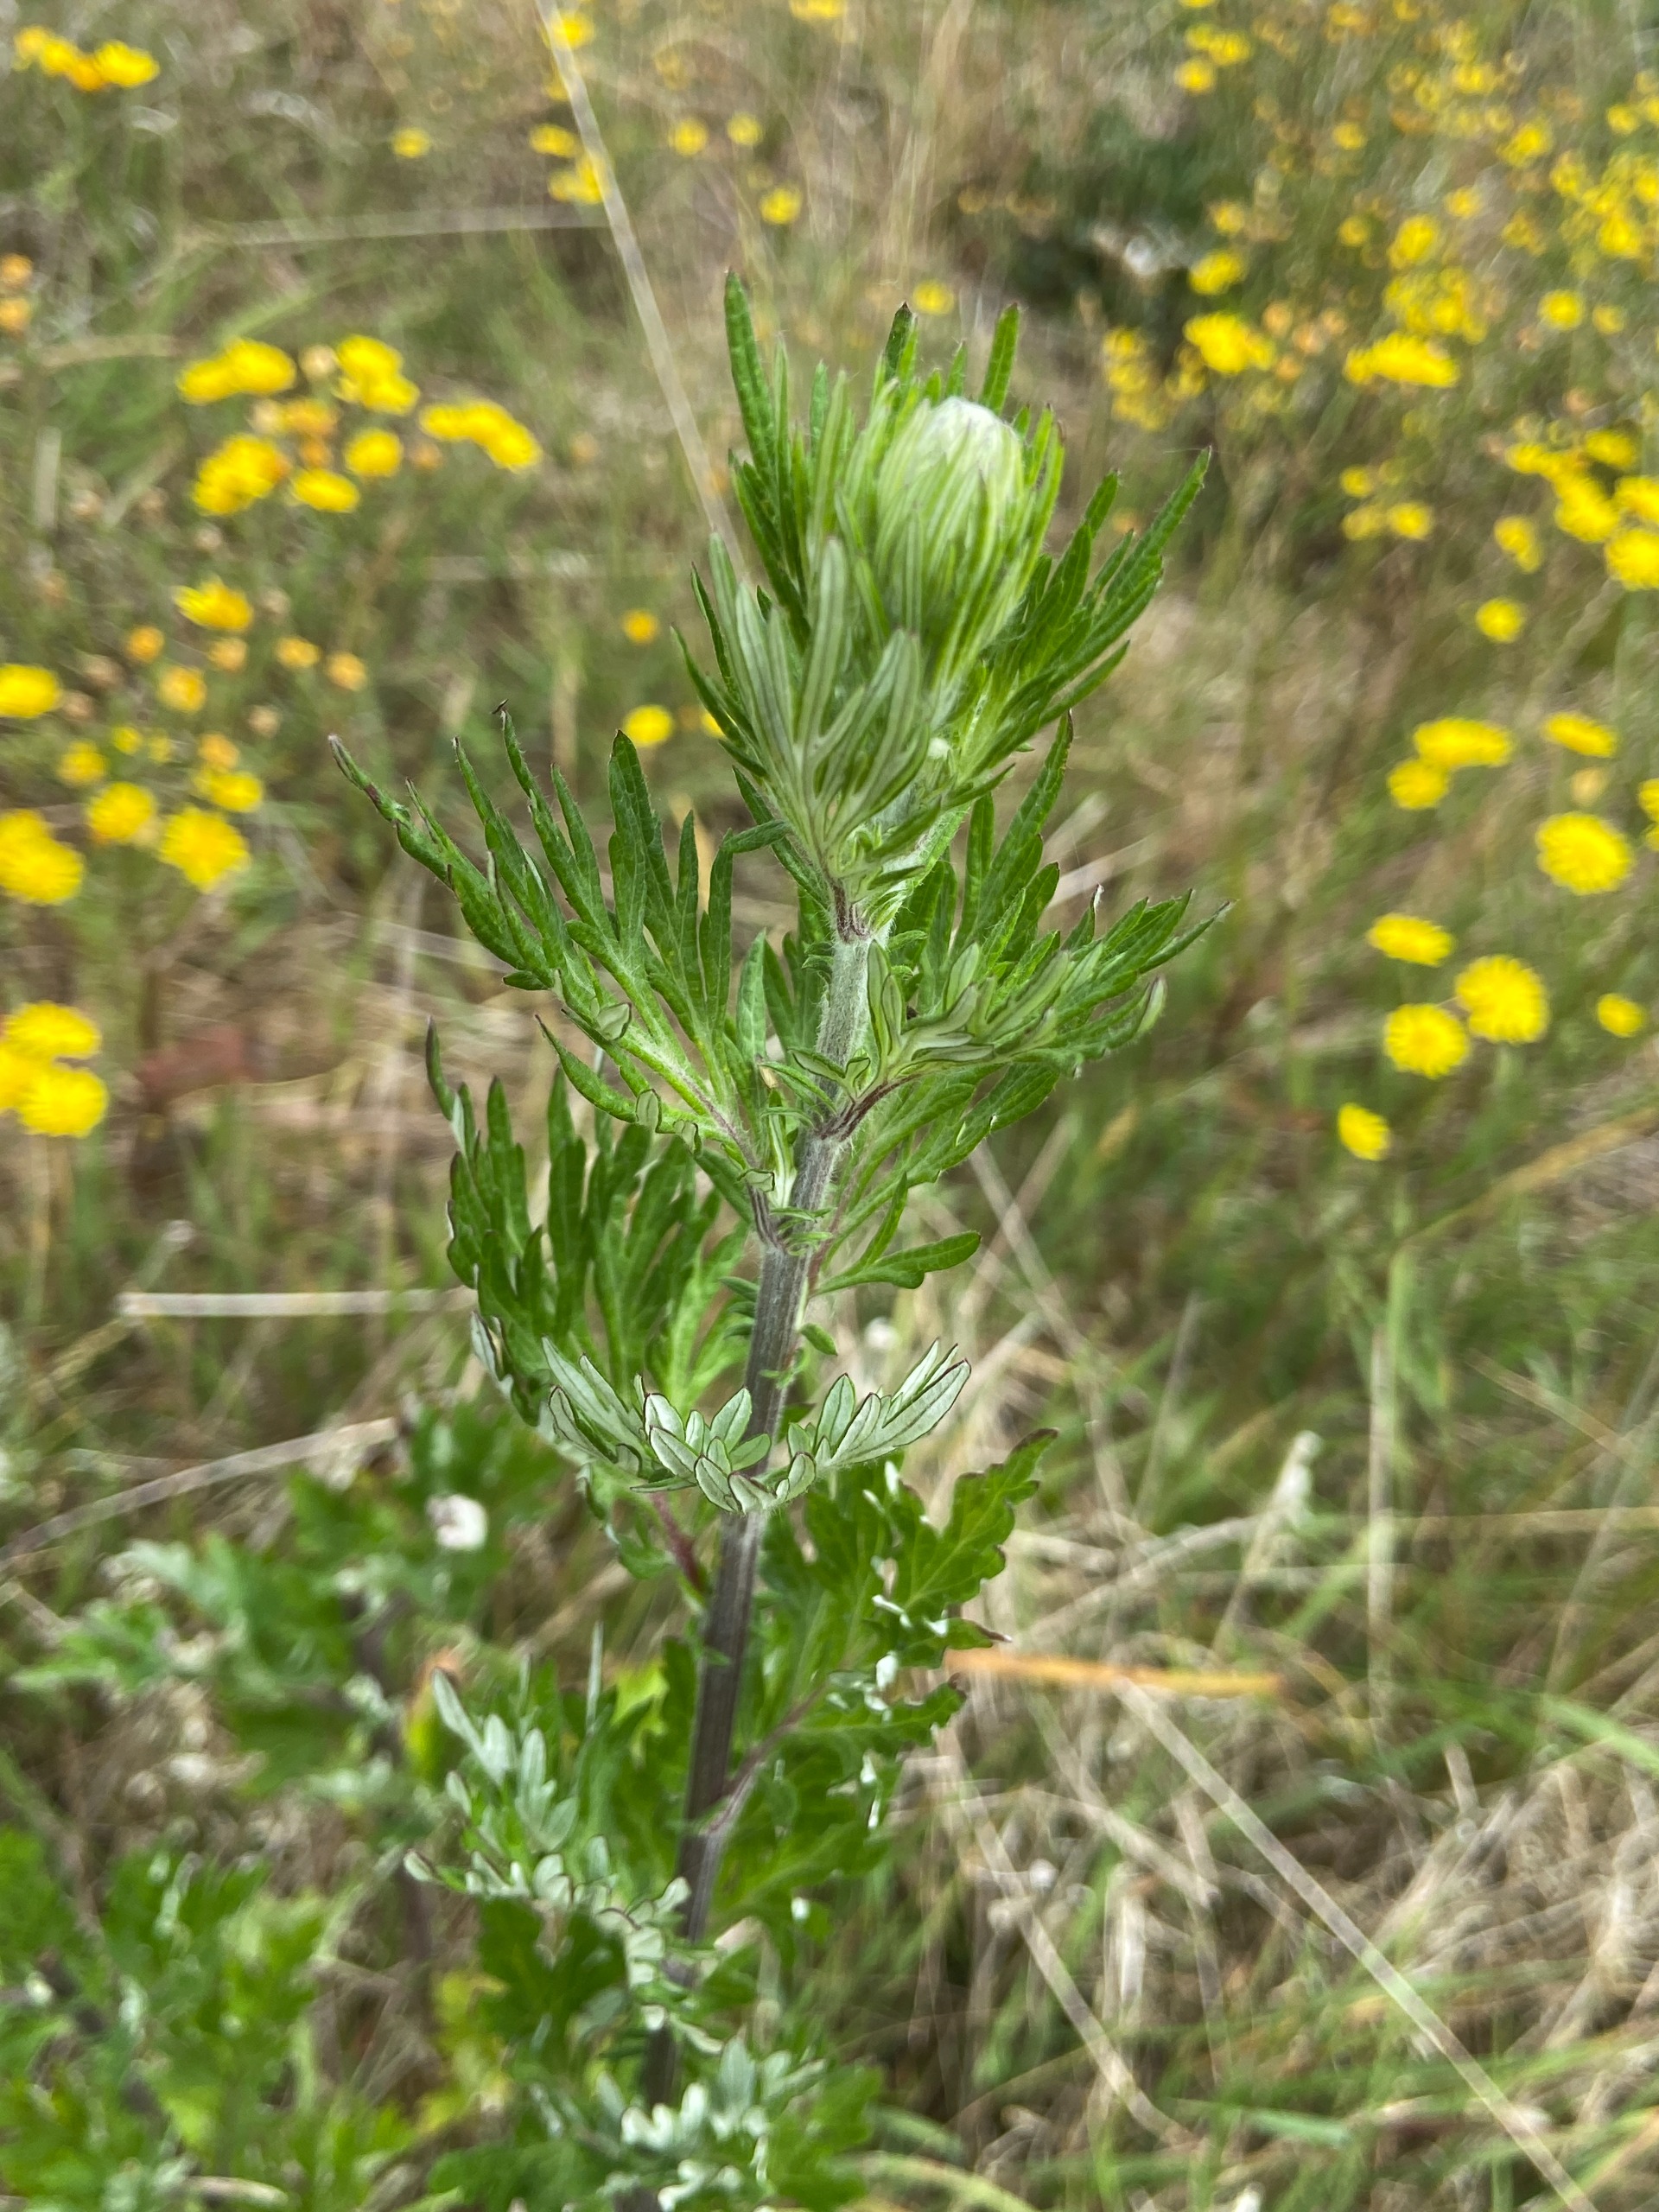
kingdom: Plantae
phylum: Tracheophyta
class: Magnoliopsida
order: Asterales
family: Asteraceae
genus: Artemisia
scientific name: Artemisia vulgaris
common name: Grå-bynke
